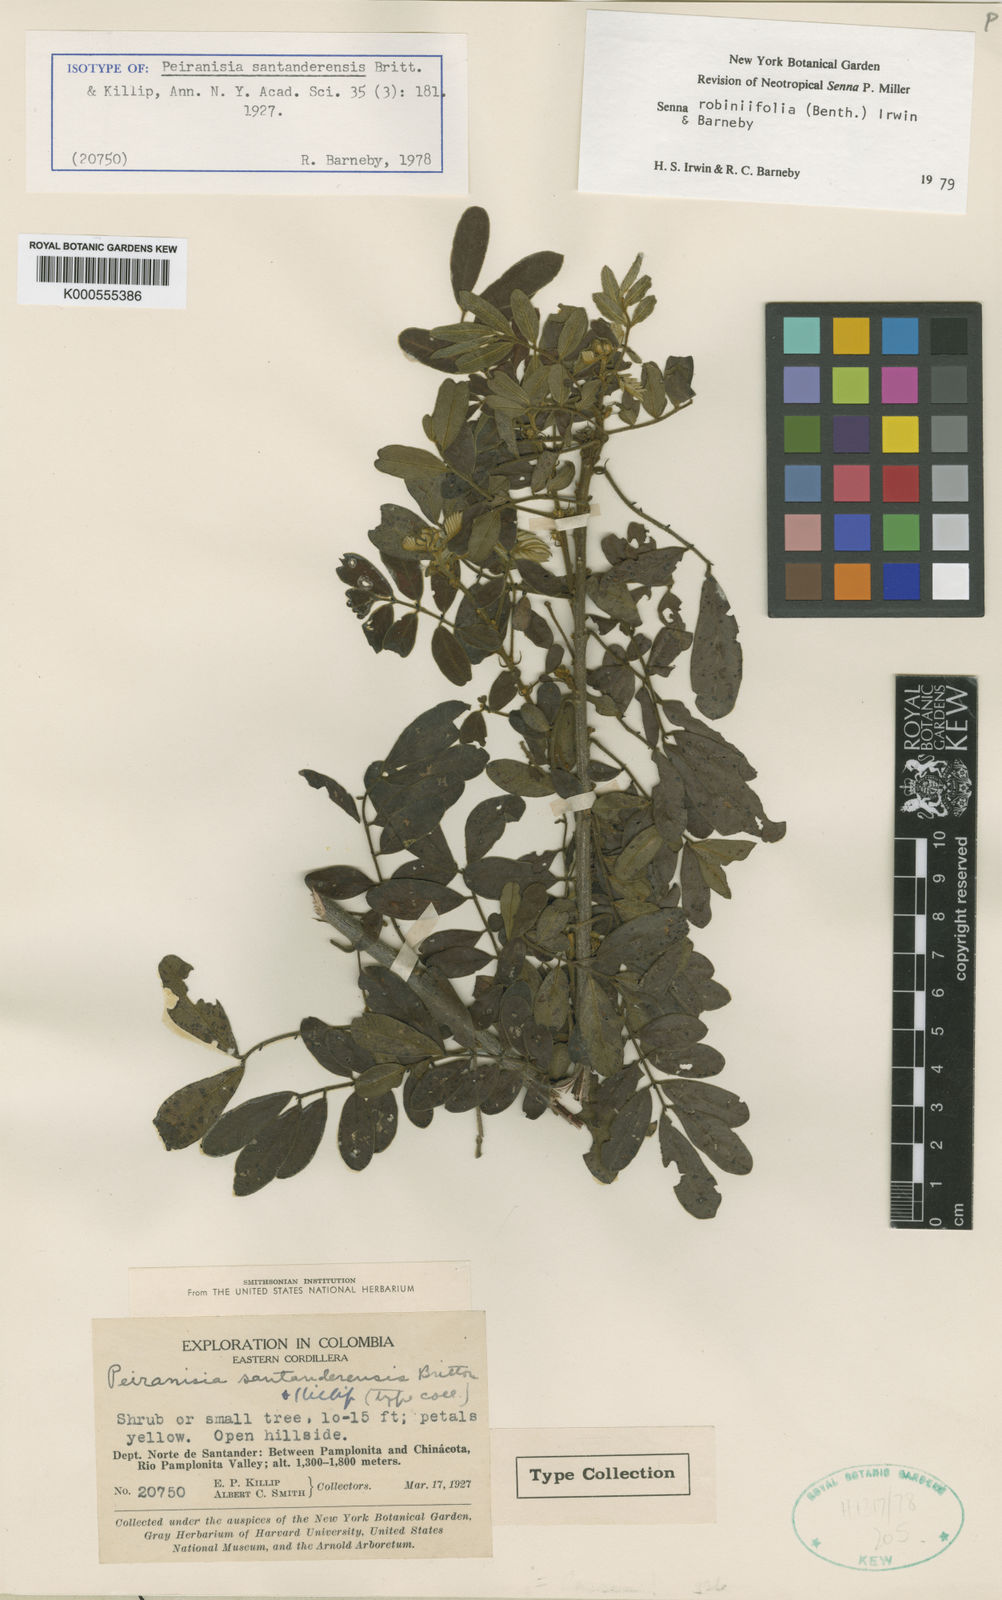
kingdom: Plantae
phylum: Tracheophyta
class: Magnoliopsida
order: Fabales
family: Fabaceae
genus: Senna
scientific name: Senna robiniifolia
